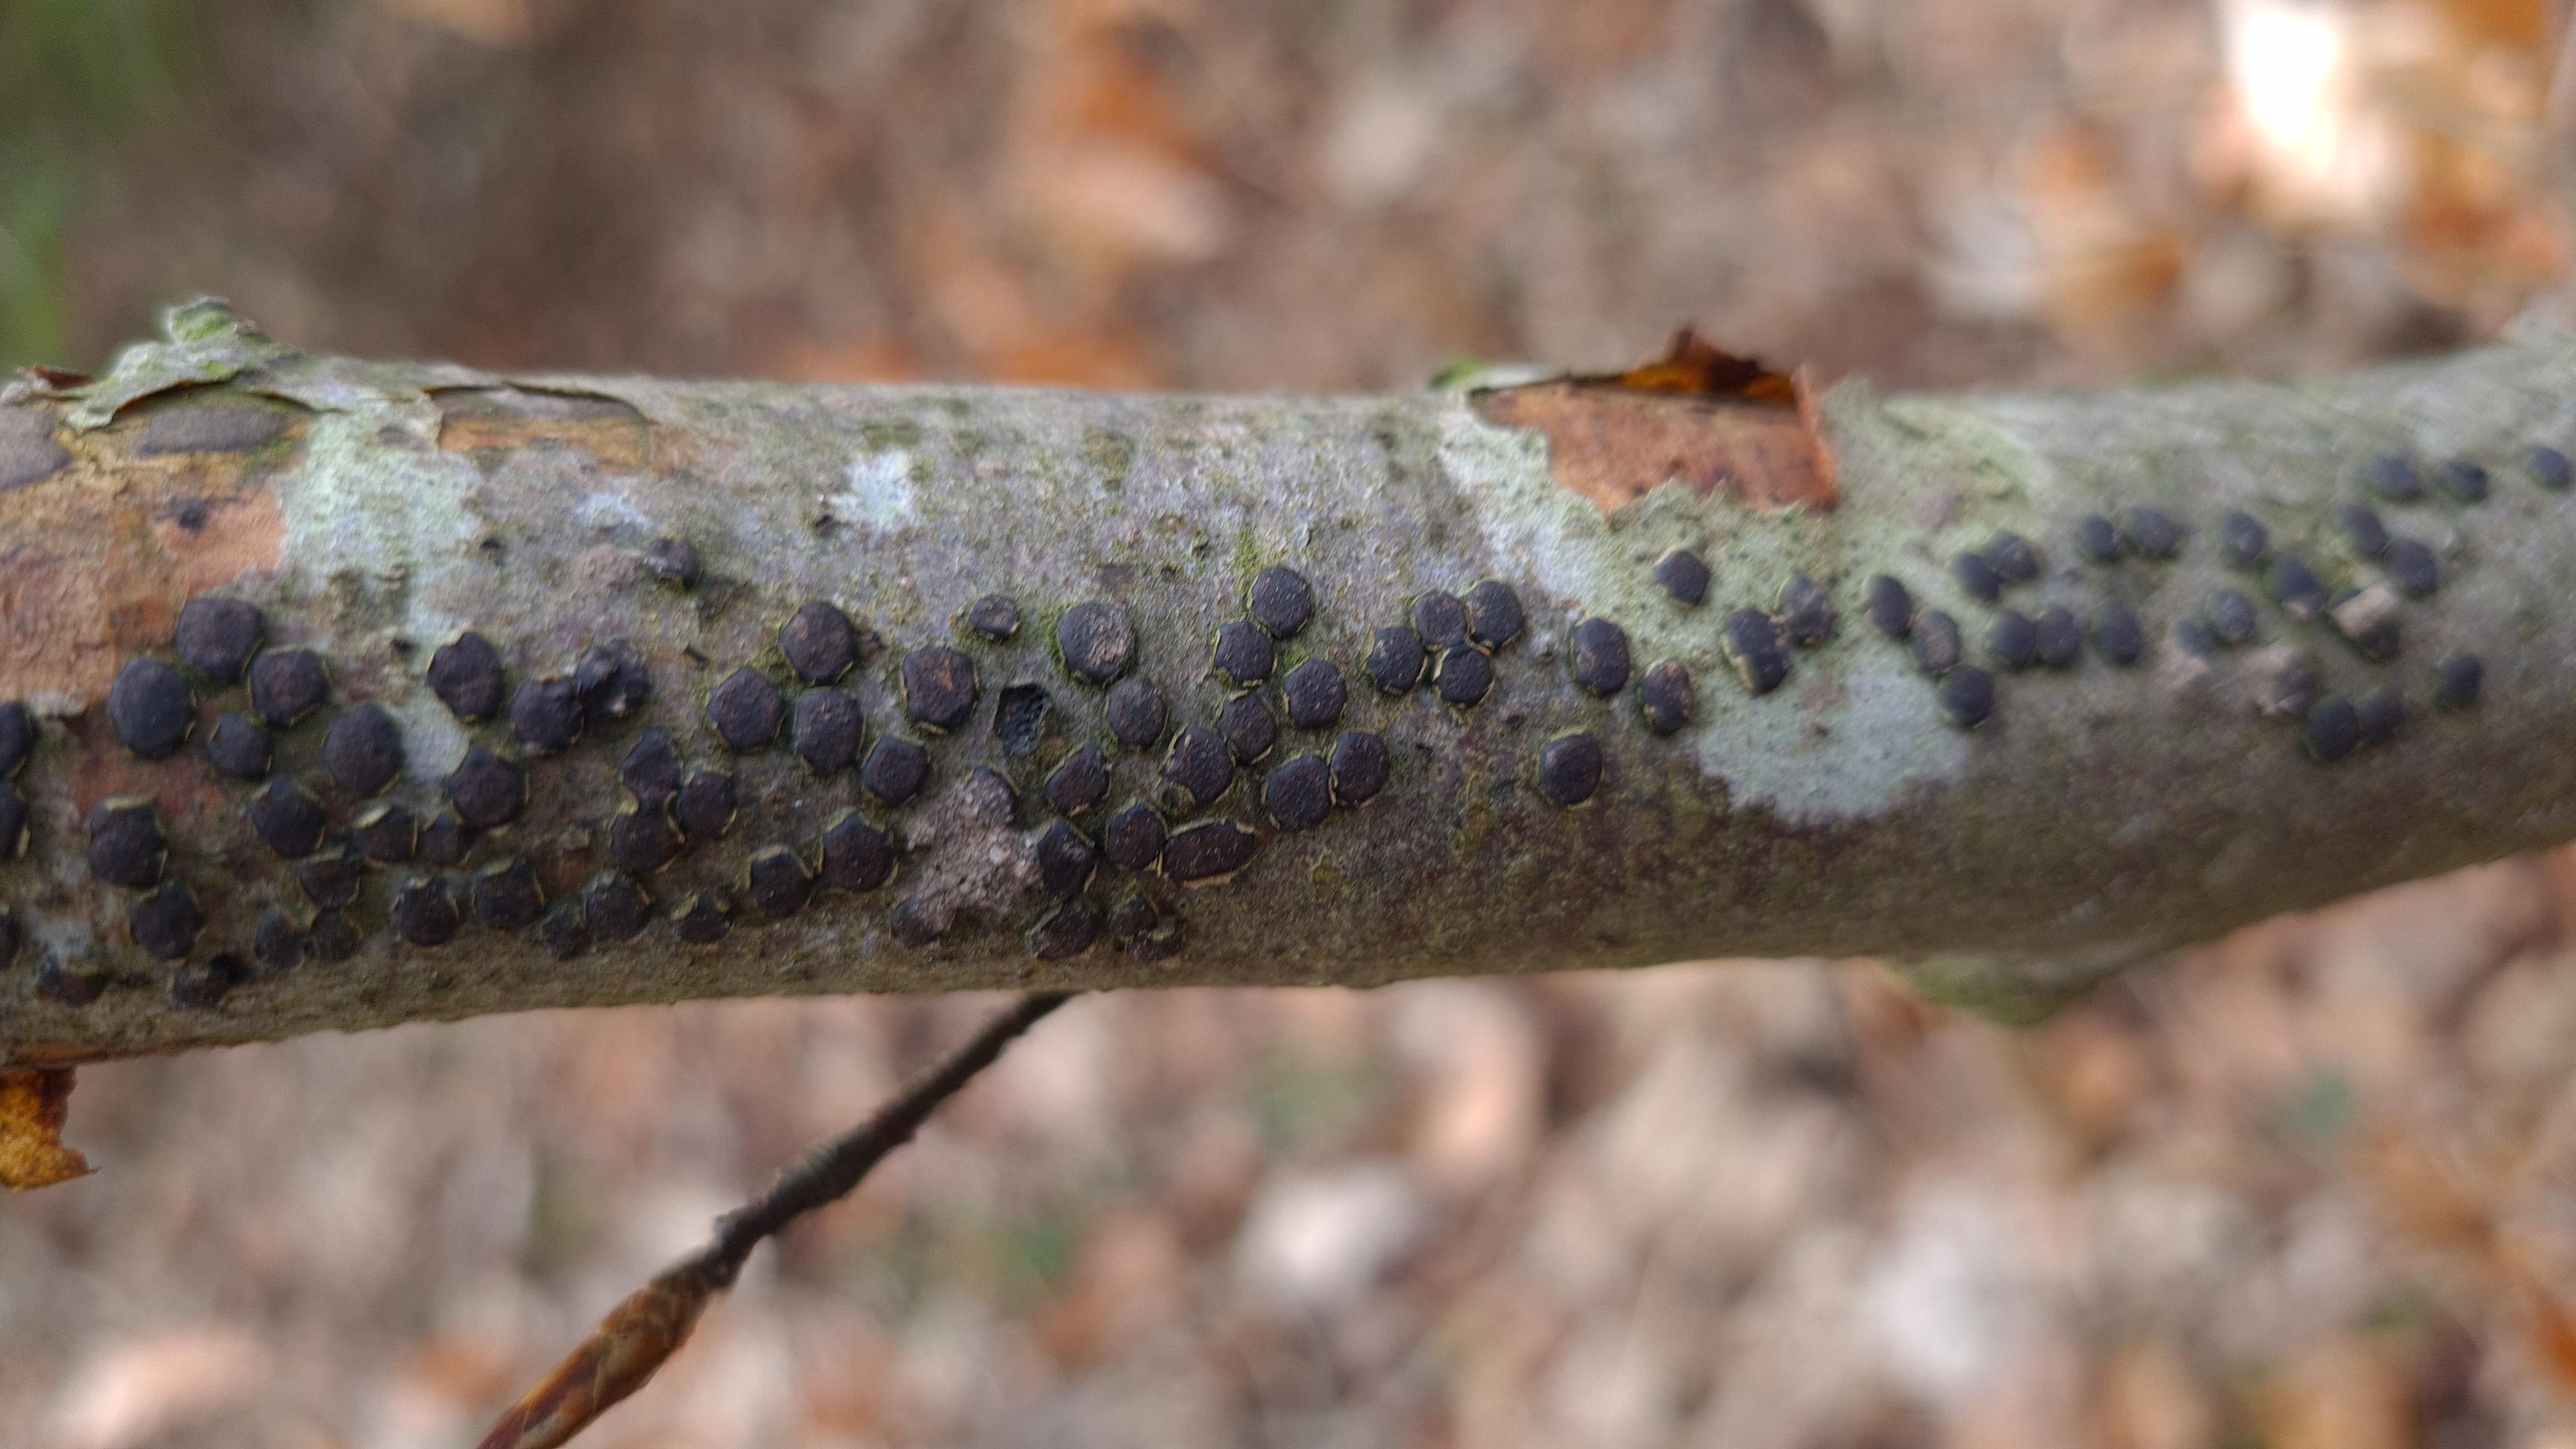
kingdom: Fungi
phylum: Ascomycota
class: Sordariomycetes
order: Xylariales
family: Diatrypaceae
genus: Diatrype
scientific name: Diatrype disciformis
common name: kant-kulskorpe
